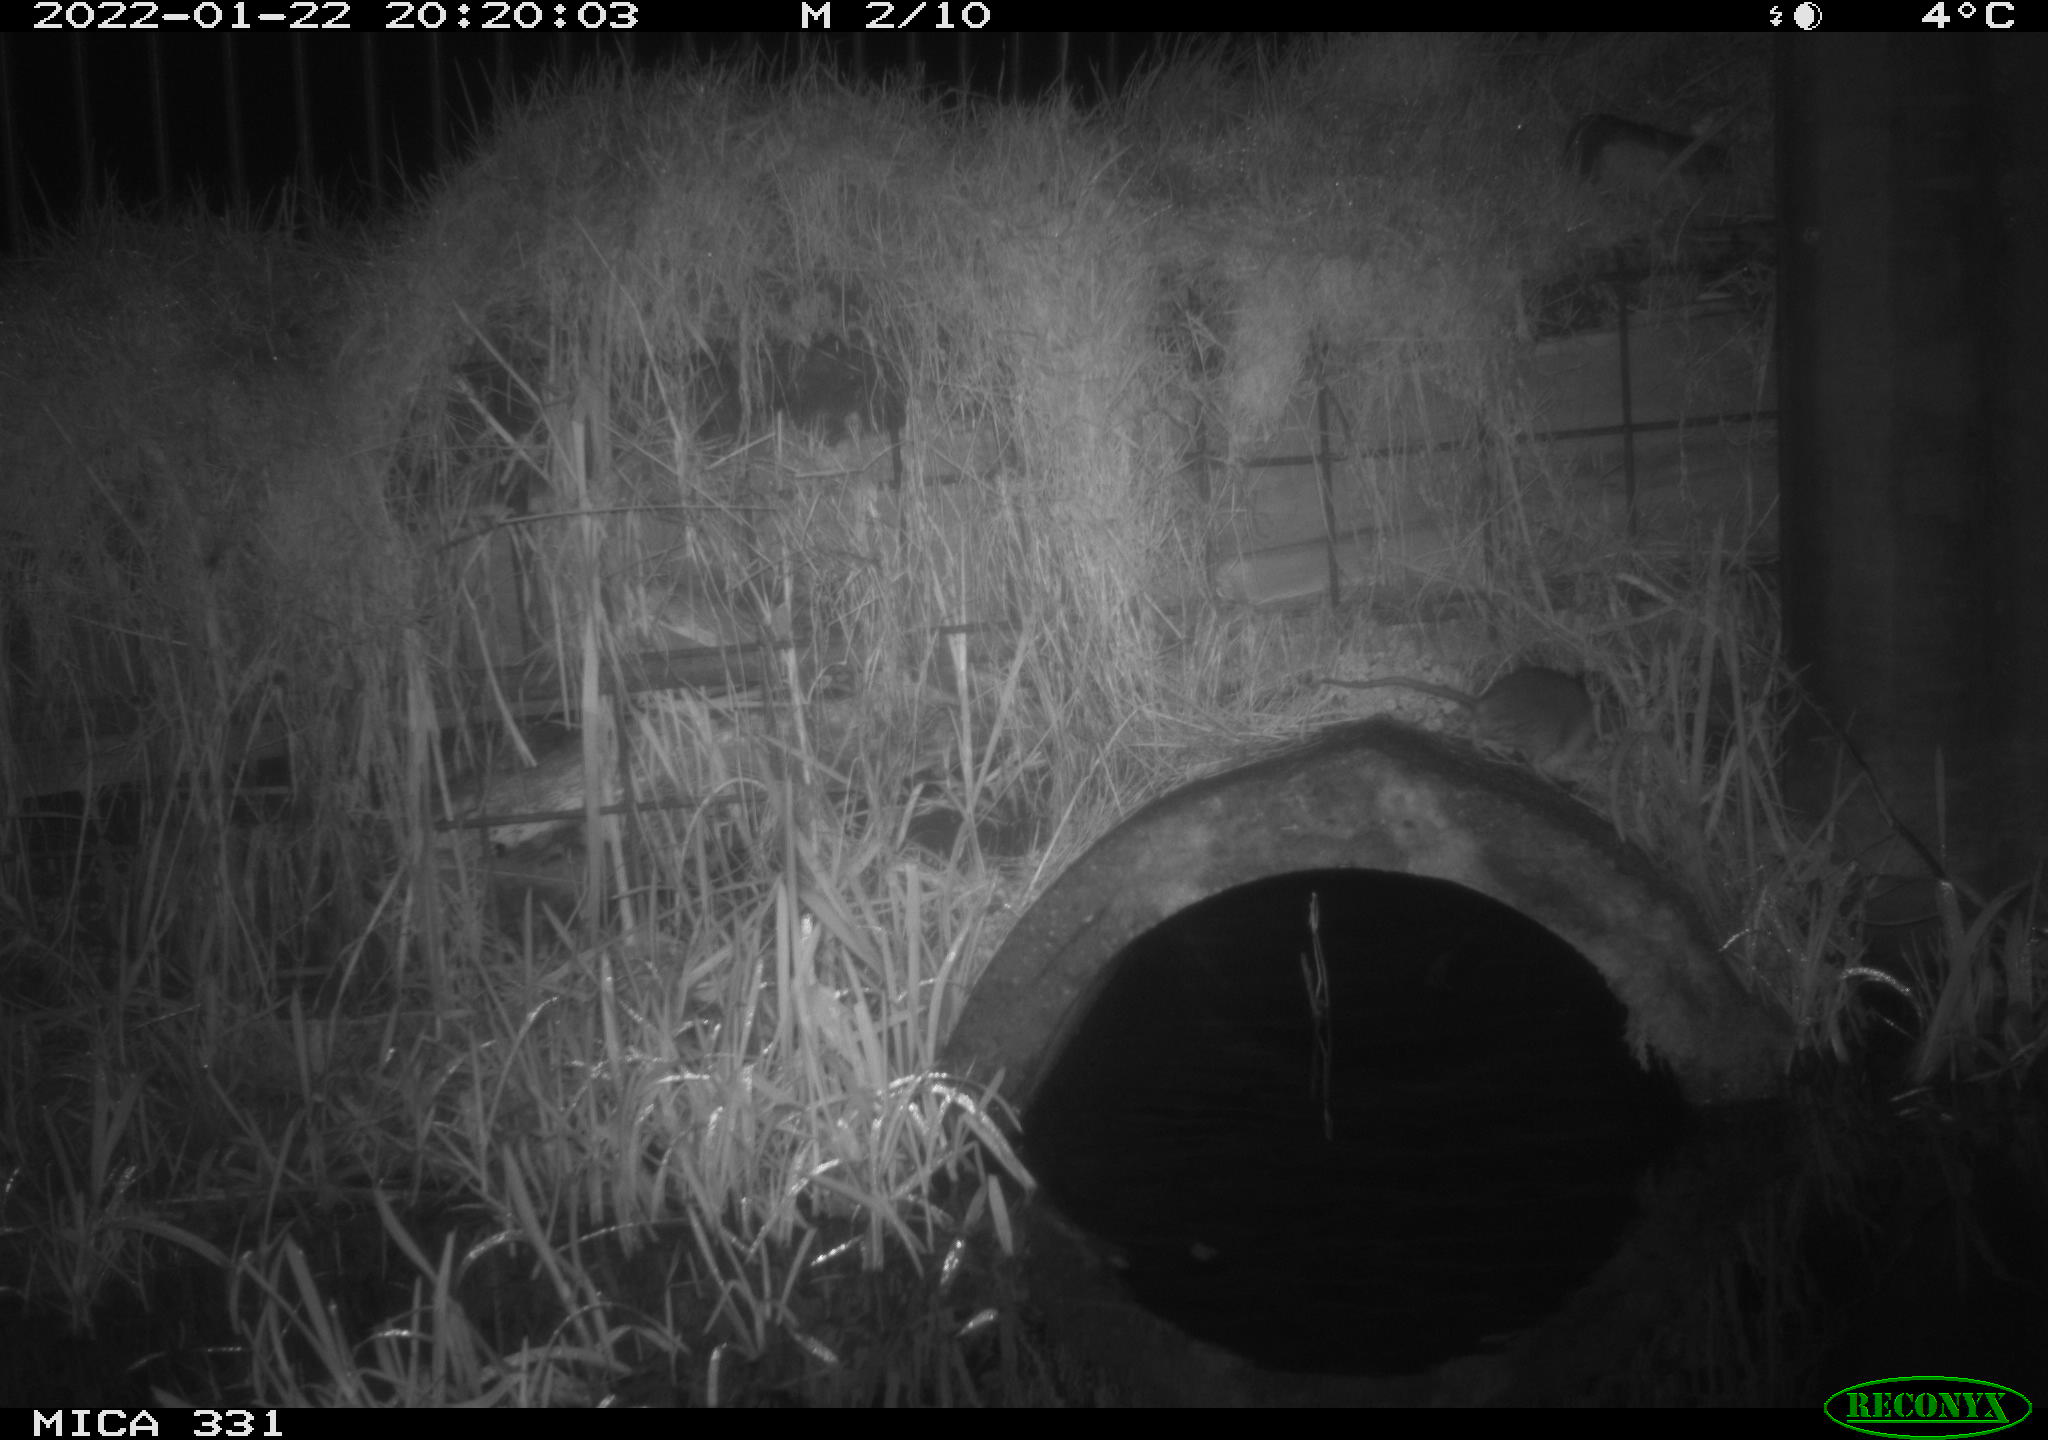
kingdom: Animalia
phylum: Chordata
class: Mammalia
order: Rodentia
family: Muridae
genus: Rattus
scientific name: Rattus norvegicus
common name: Brown rat
